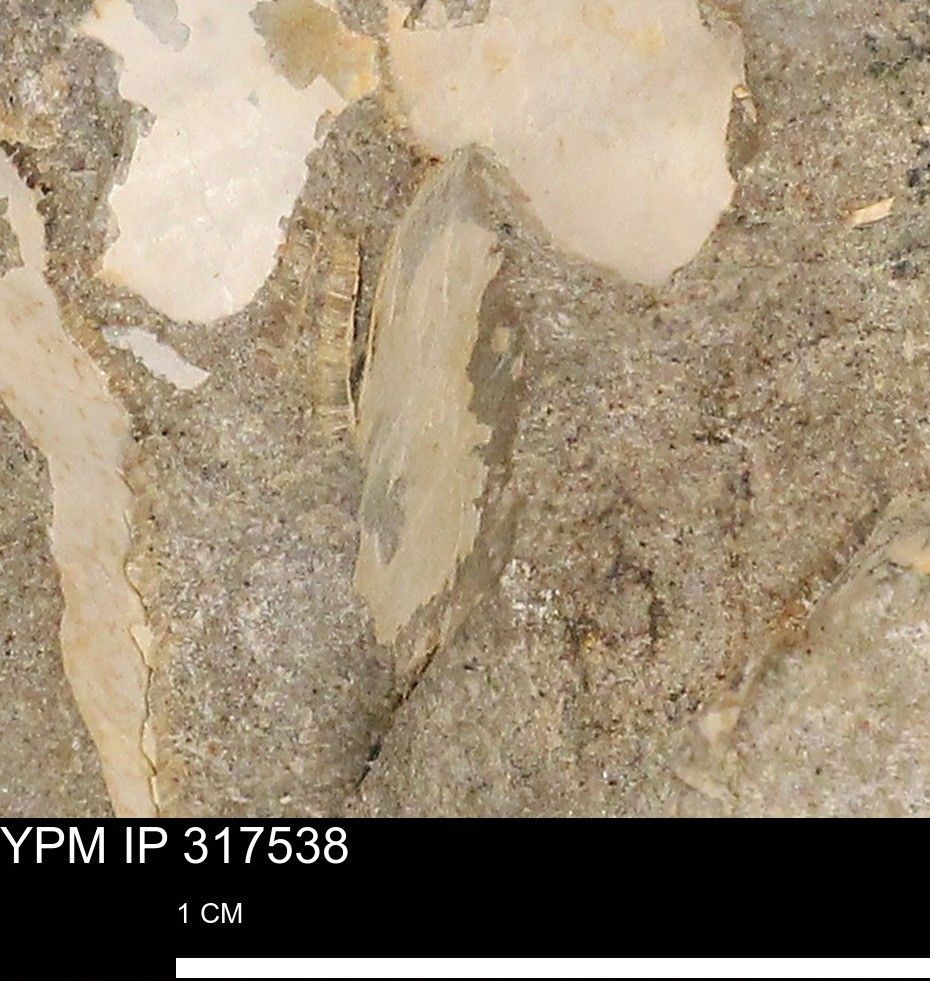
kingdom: Animalia
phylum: Mollusca
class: Bivalvia
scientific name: Bivalvia
